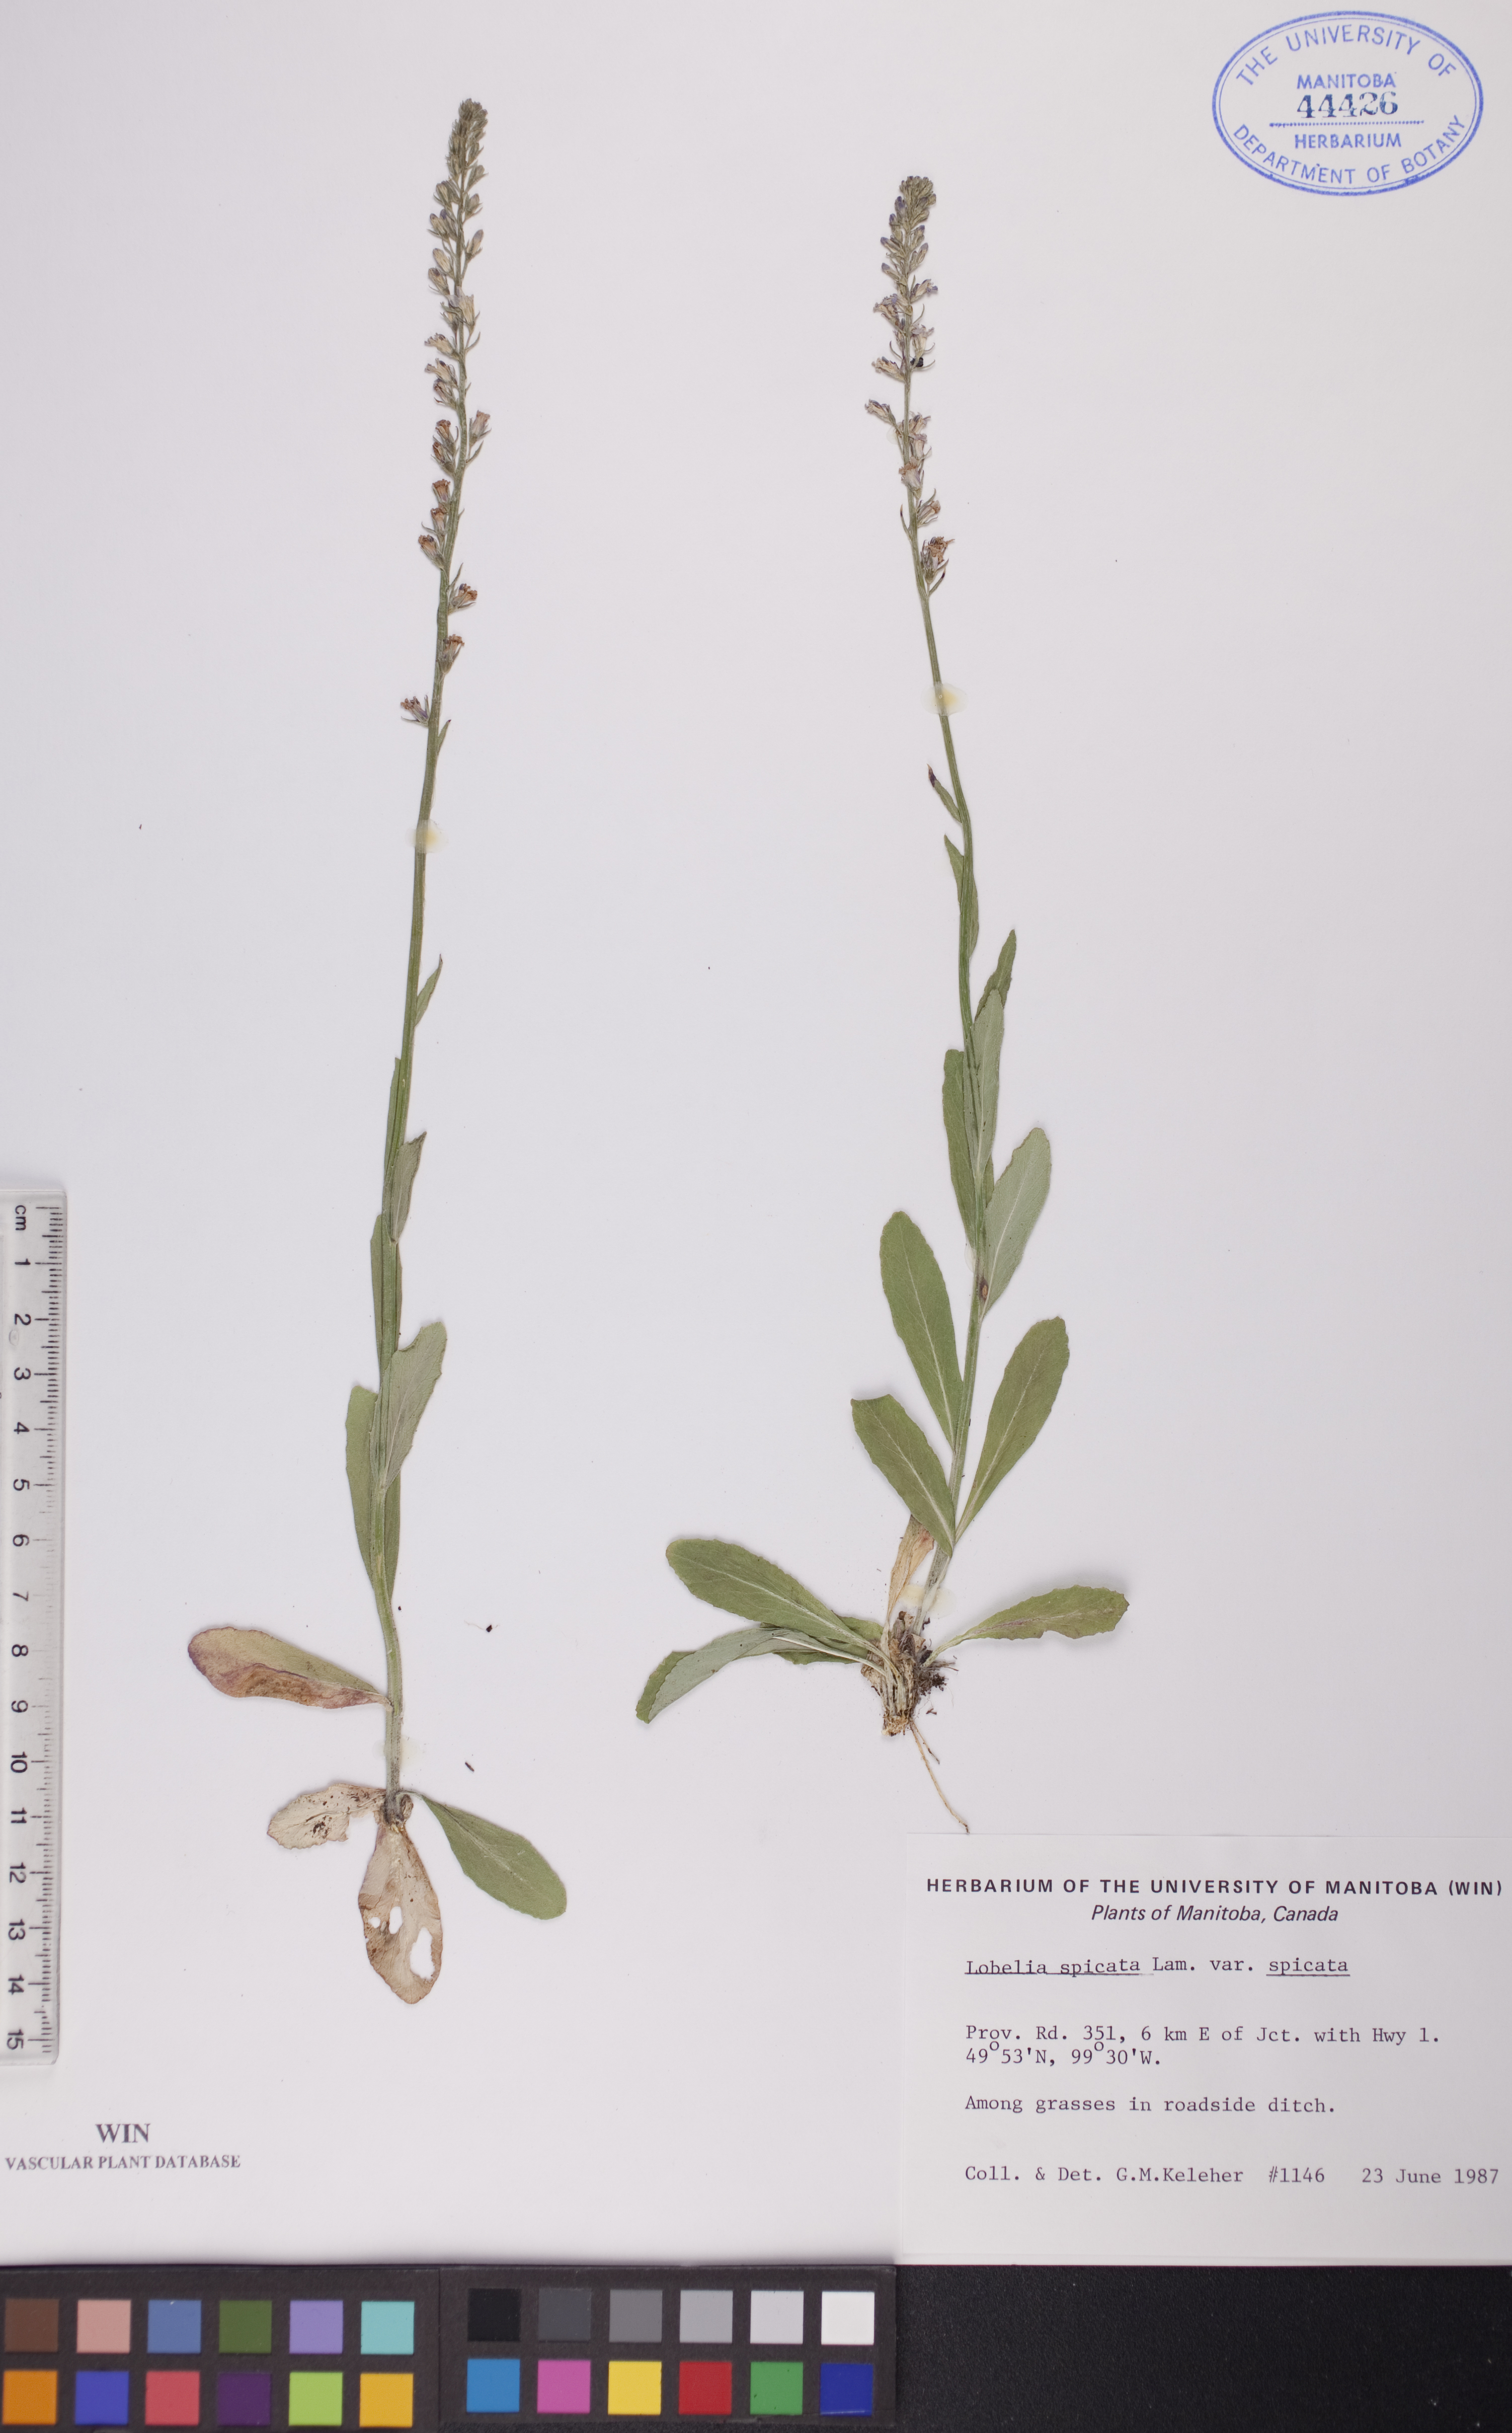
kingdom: Plantae
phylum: Tracheophyta
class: Magnoliopsida
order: Asterales
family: Campanulaceae
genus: Lobelia
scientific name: Lobelia spicata
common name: Pale-spike lobelia
